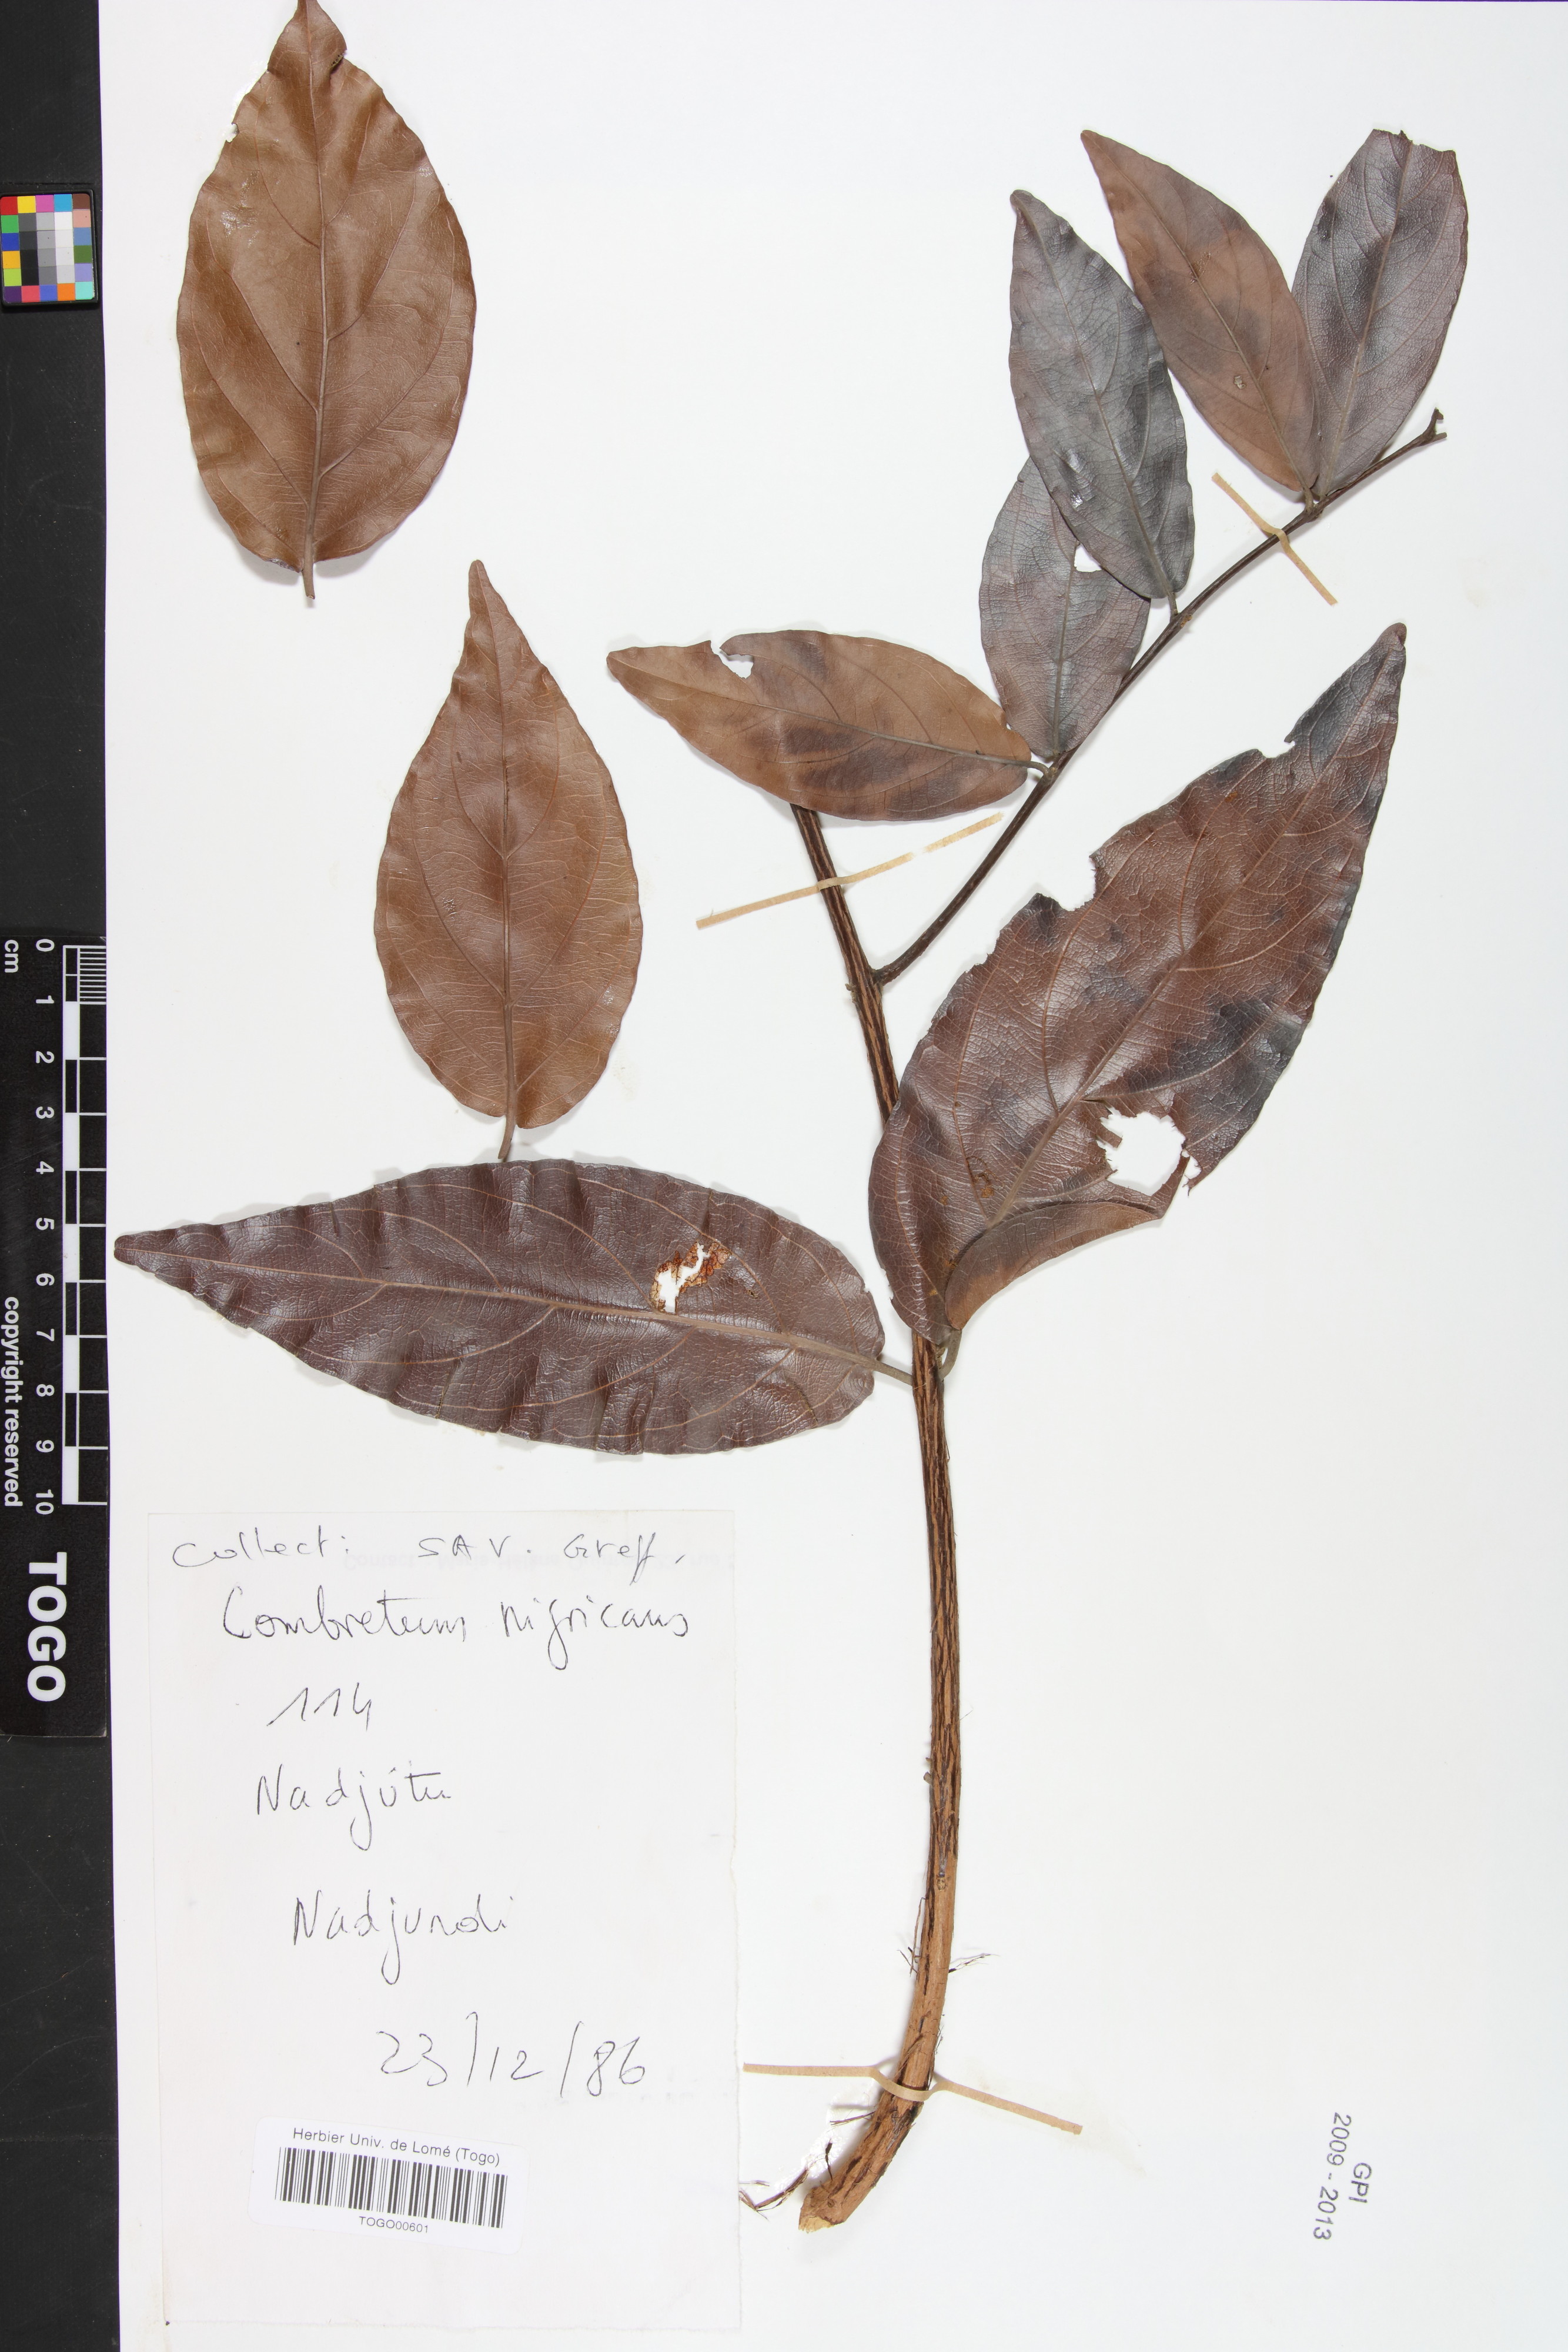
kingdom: Plantae
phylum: Tracheophyta
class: Magnoliopsida
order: Myrtales
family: Combretaceae
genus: Combretum
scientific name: Combretum nigricans
